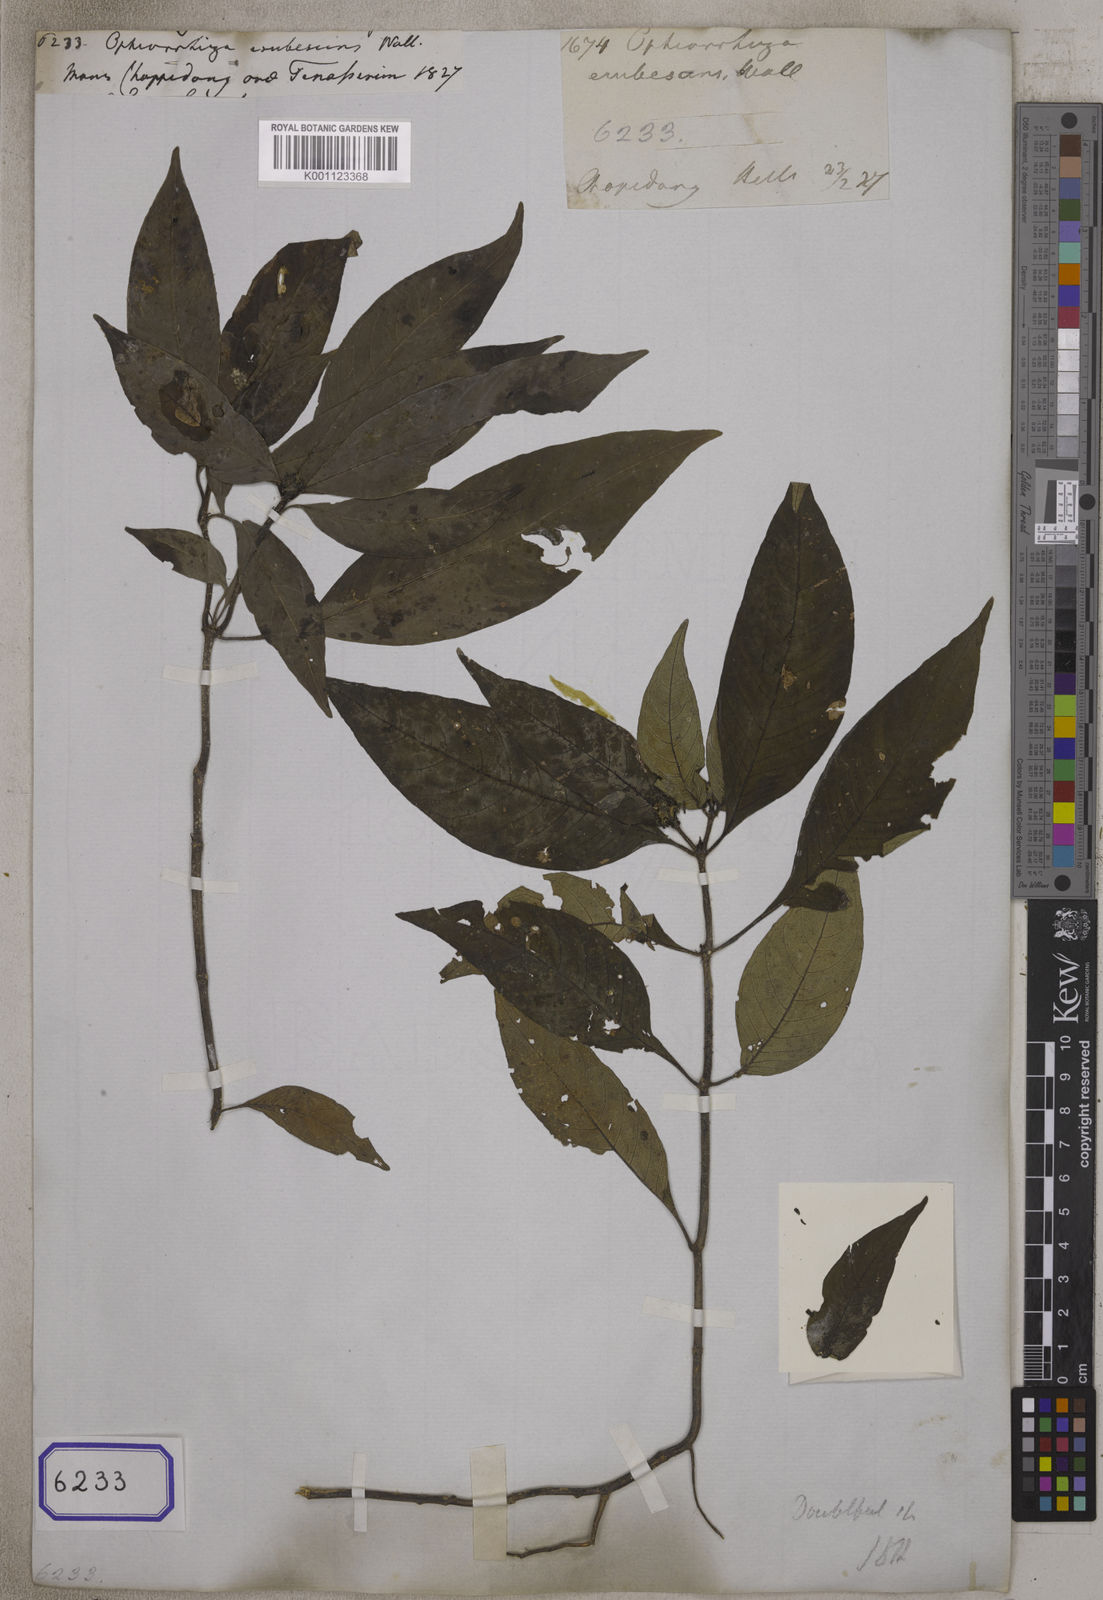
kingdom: Plantae
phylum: Tracheophyta
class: Magnoliopsida
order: Gentianales
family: Rubiaceae
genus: Ophiorrhiza
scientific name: Ophiorrhiza
